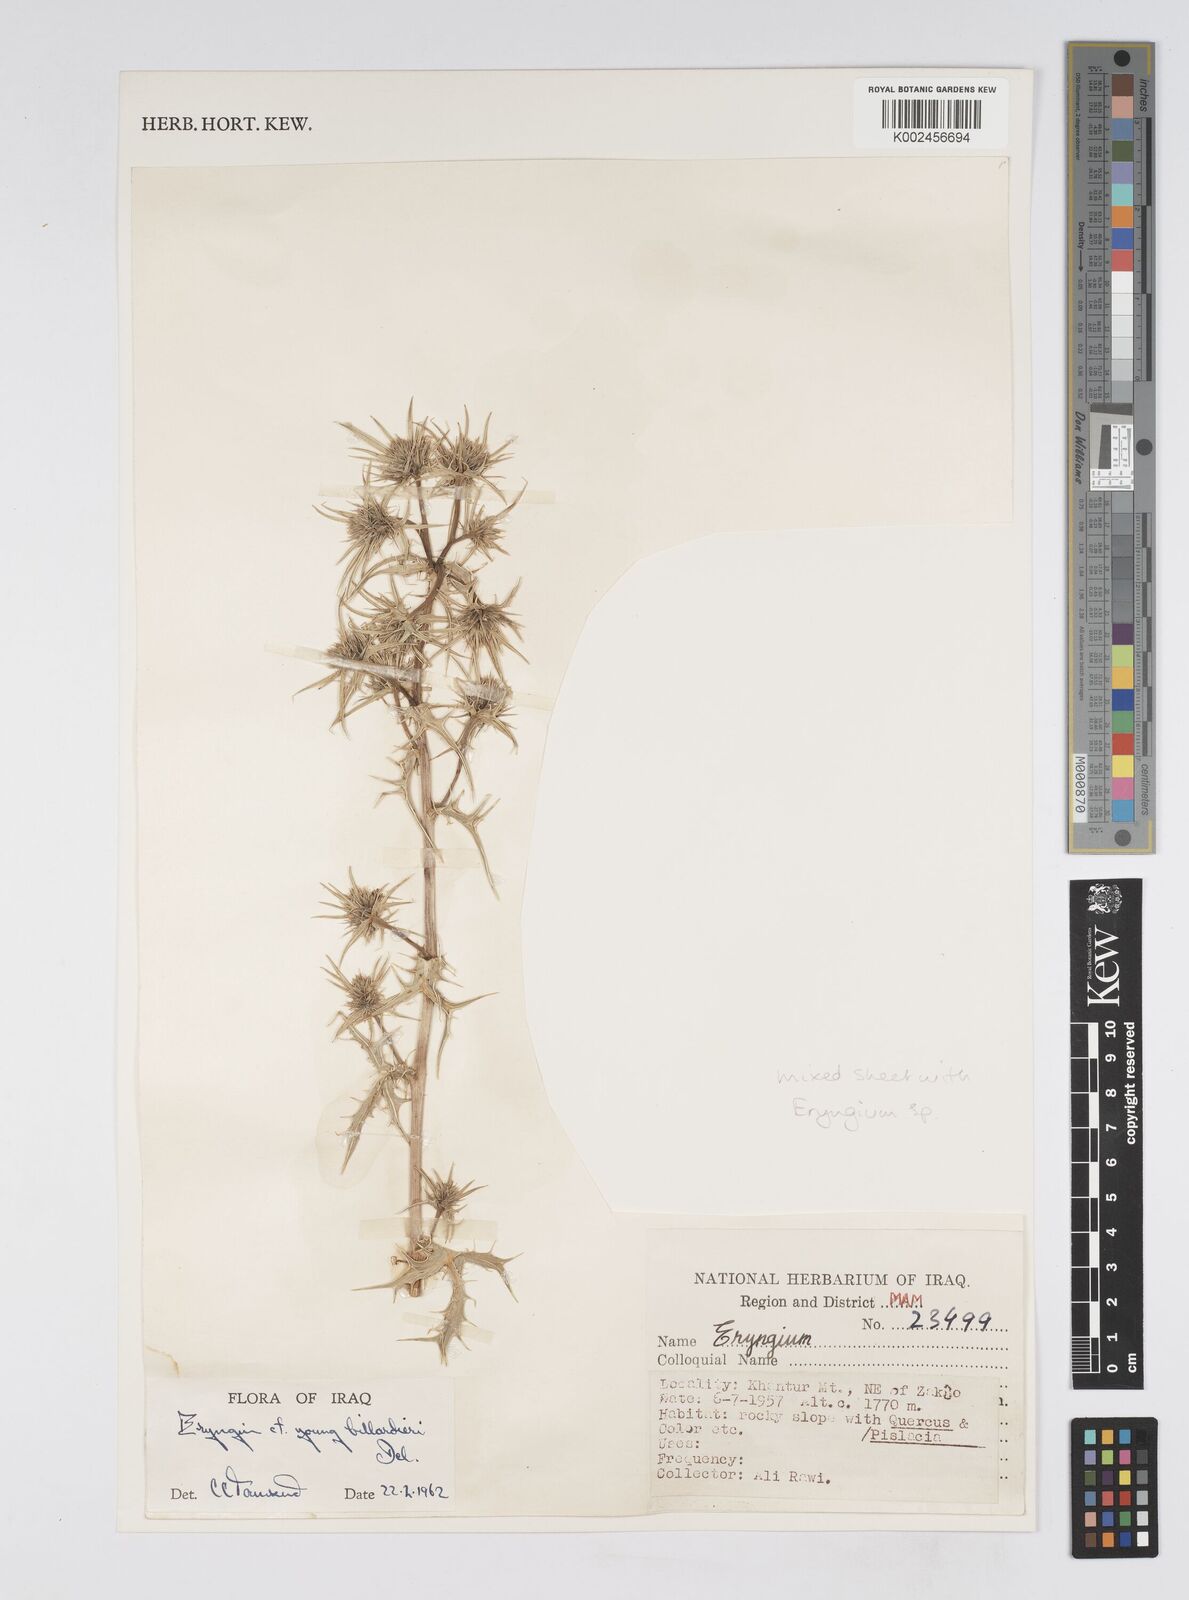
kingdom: Plantae
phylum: Tracheophyta
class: Magnoliopsida
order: Apiales
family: Apiaceae
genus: Eryngium
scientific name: Eryngium billardierei
